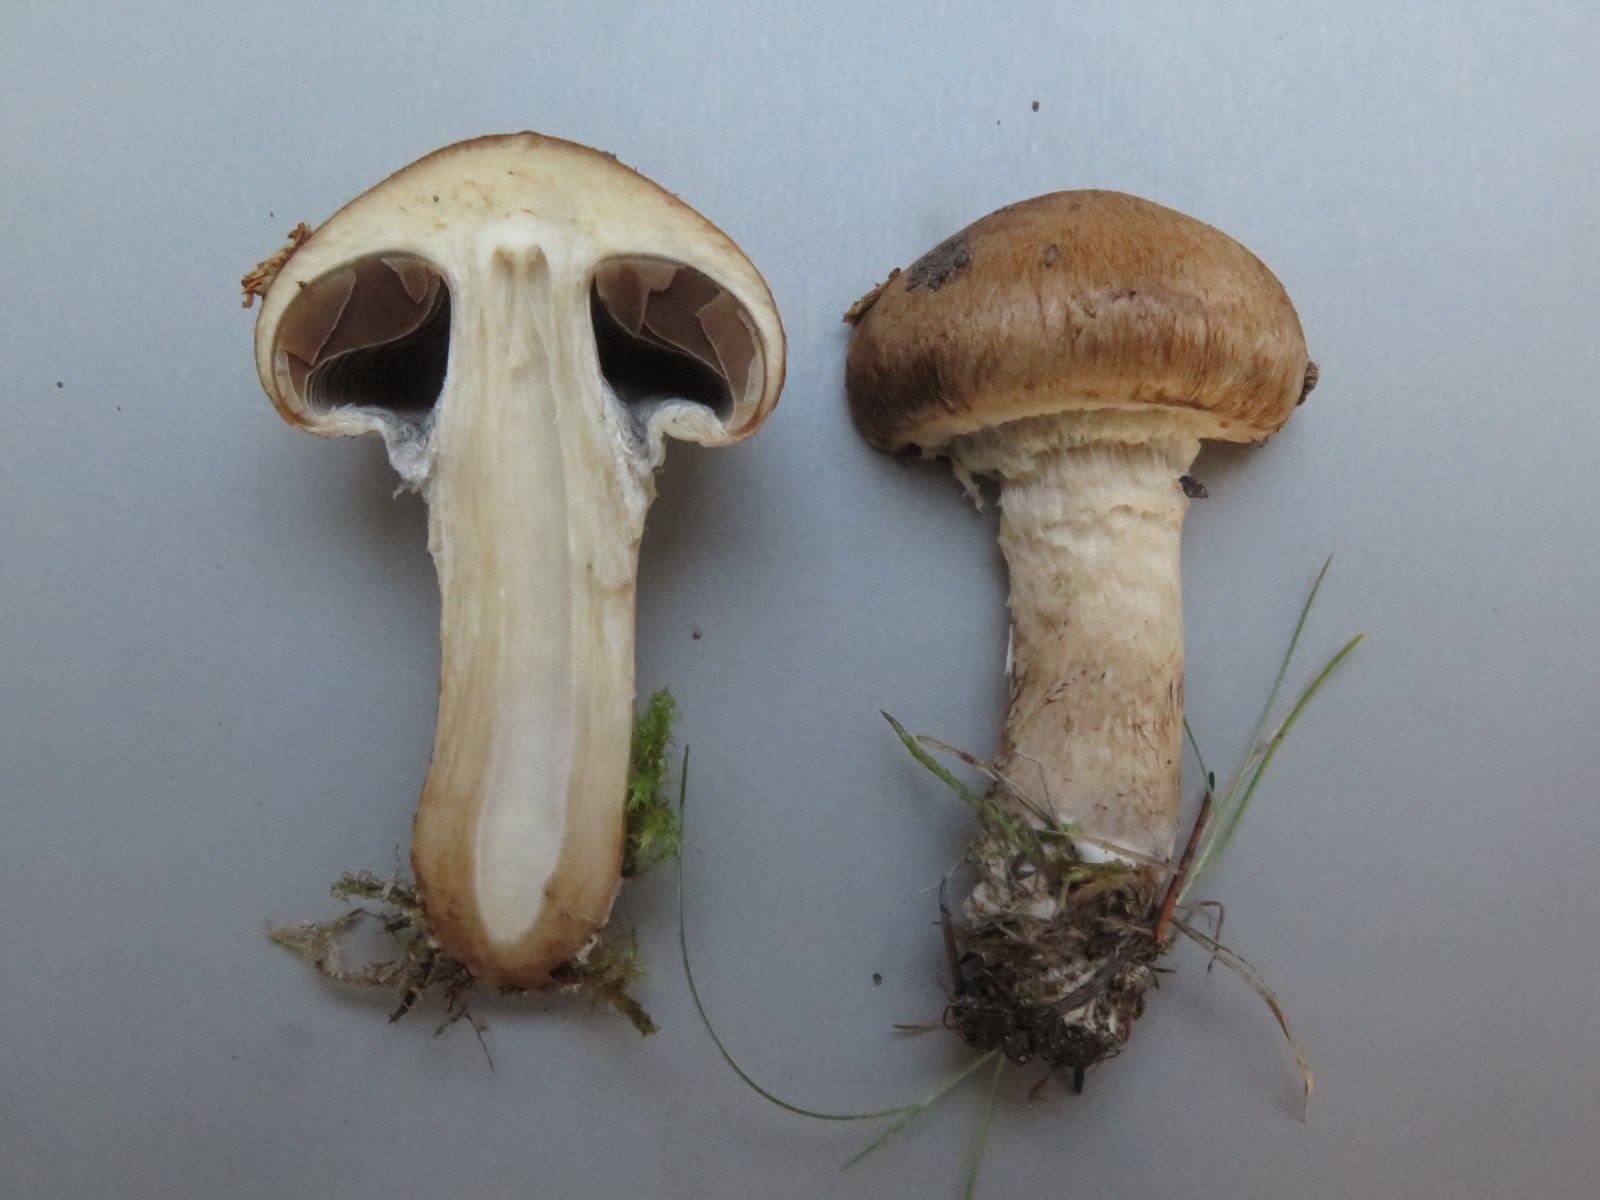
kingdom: Fungi
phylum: Basidiomycota
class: Agaricomycetes
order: Agaricales
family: Psathyrellaceae
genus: Lacrymaria
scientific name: Lacrymaria lacrymabunda
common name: grædende mørkhat
